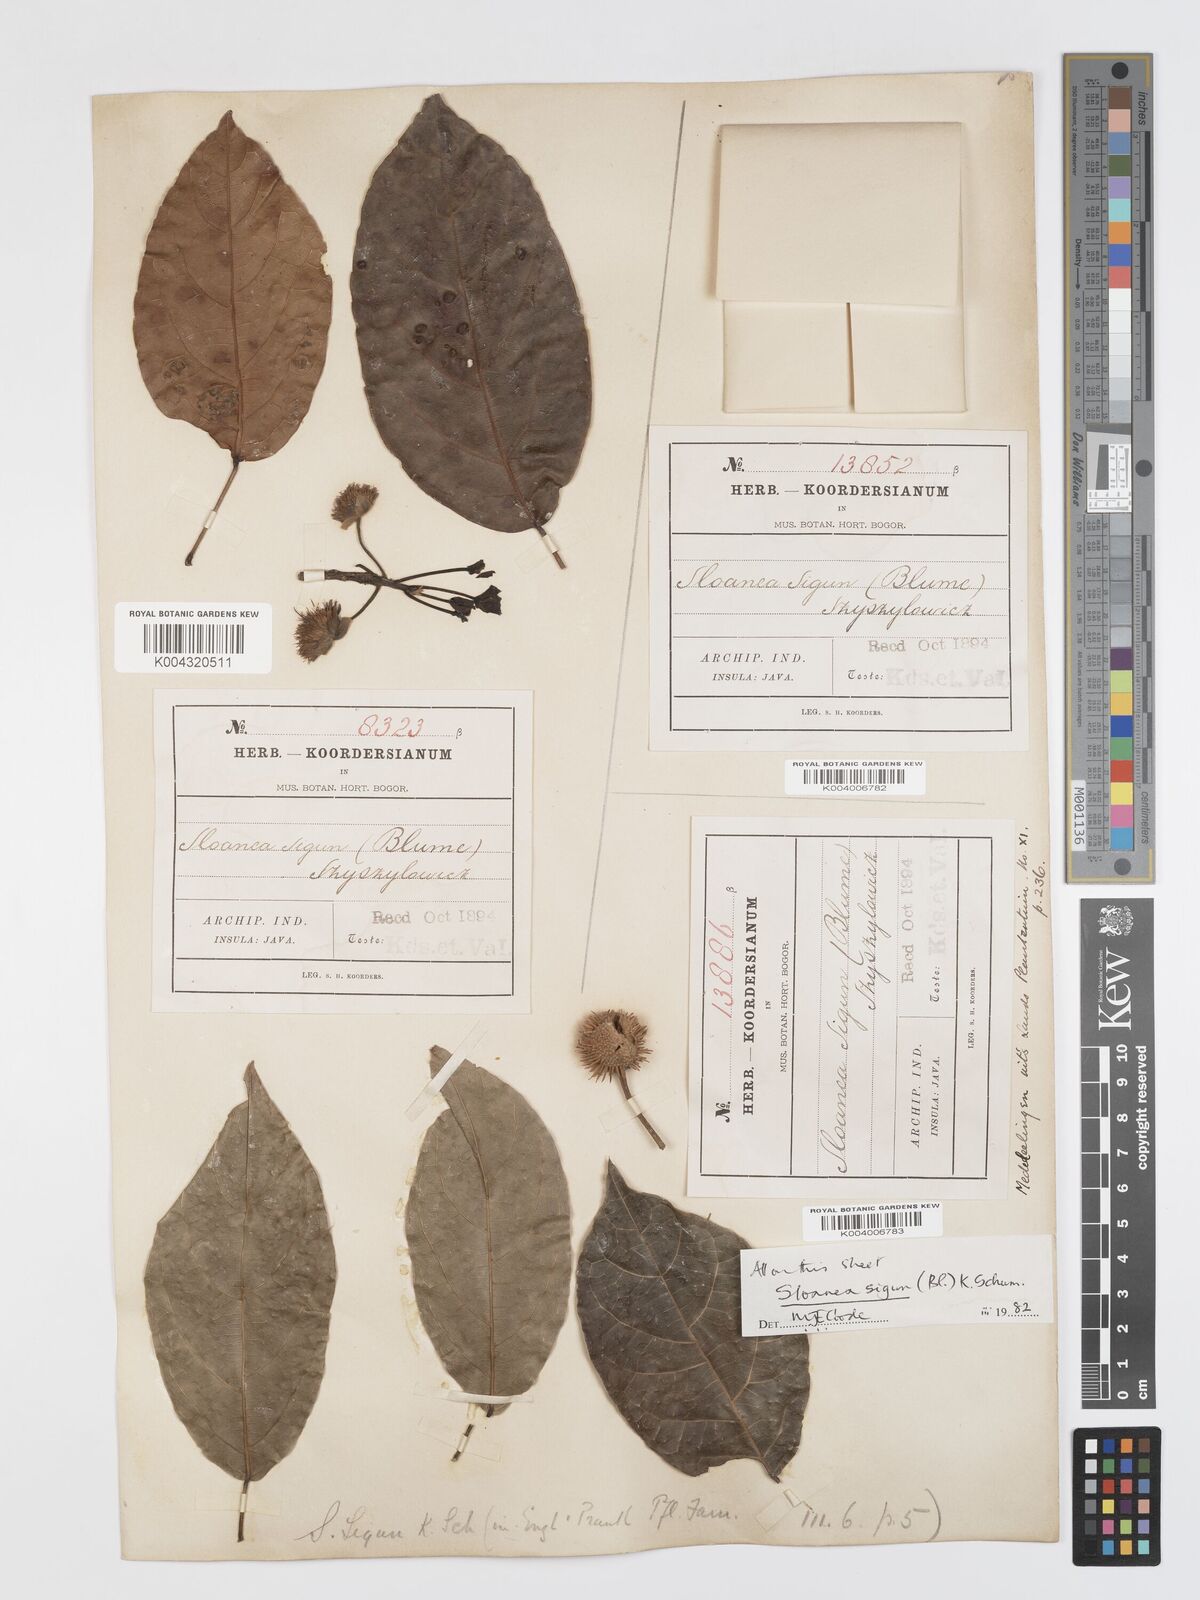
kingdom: Plantae
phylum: Tracheophyta
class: Magnoliopsida
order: Oxalidales
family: Elaeocarpaceae
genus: Sloanea
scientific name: Sloanea sigun
